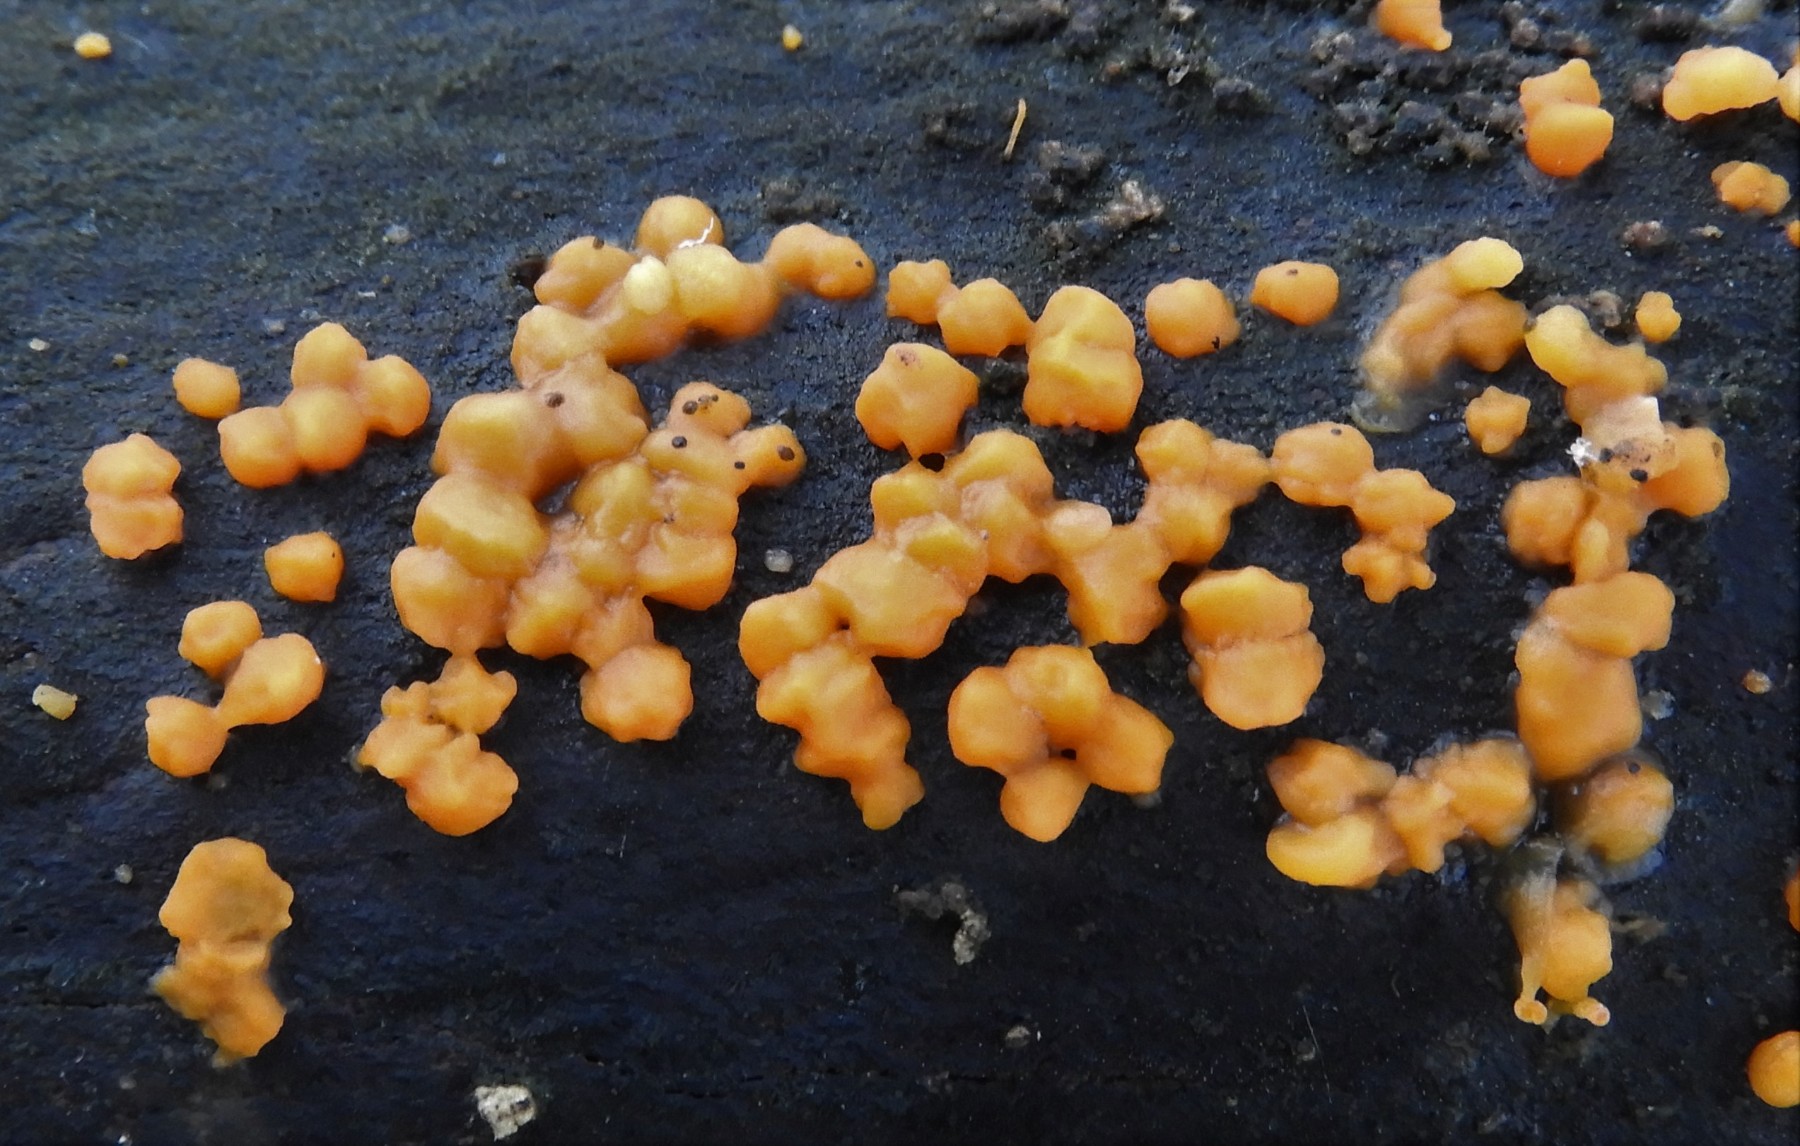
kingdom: Fungi
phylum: Basidiomycota
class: Dacrymycetes
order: Dacrymycetales
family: Dacrymycetaceae
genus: Dacrymyces
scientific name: Dacrymyces stillatus
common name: almindelig tåresvamp
